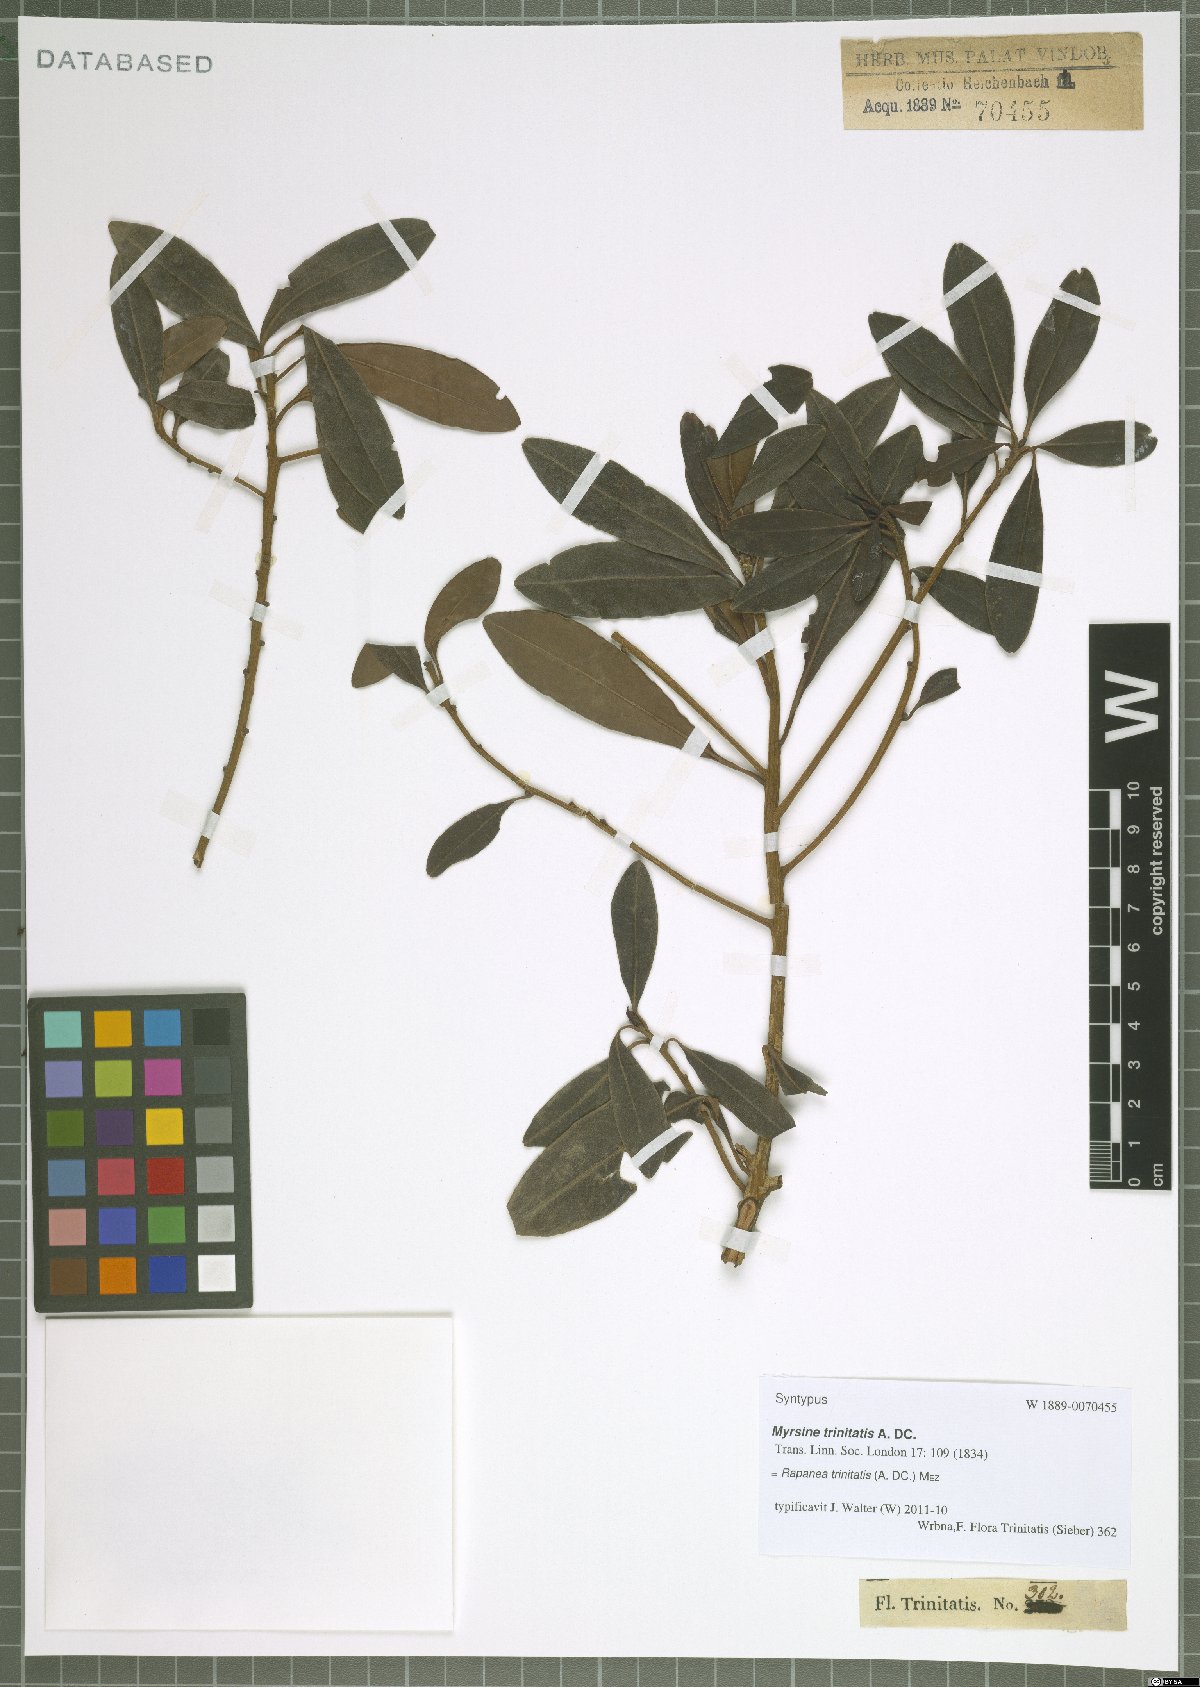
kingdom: Plantae
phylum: Tracheophyta
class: Magnoliopsida
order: Ericales
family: Primulaceae
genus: Myrsine
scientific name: Myrsine trinitatis
